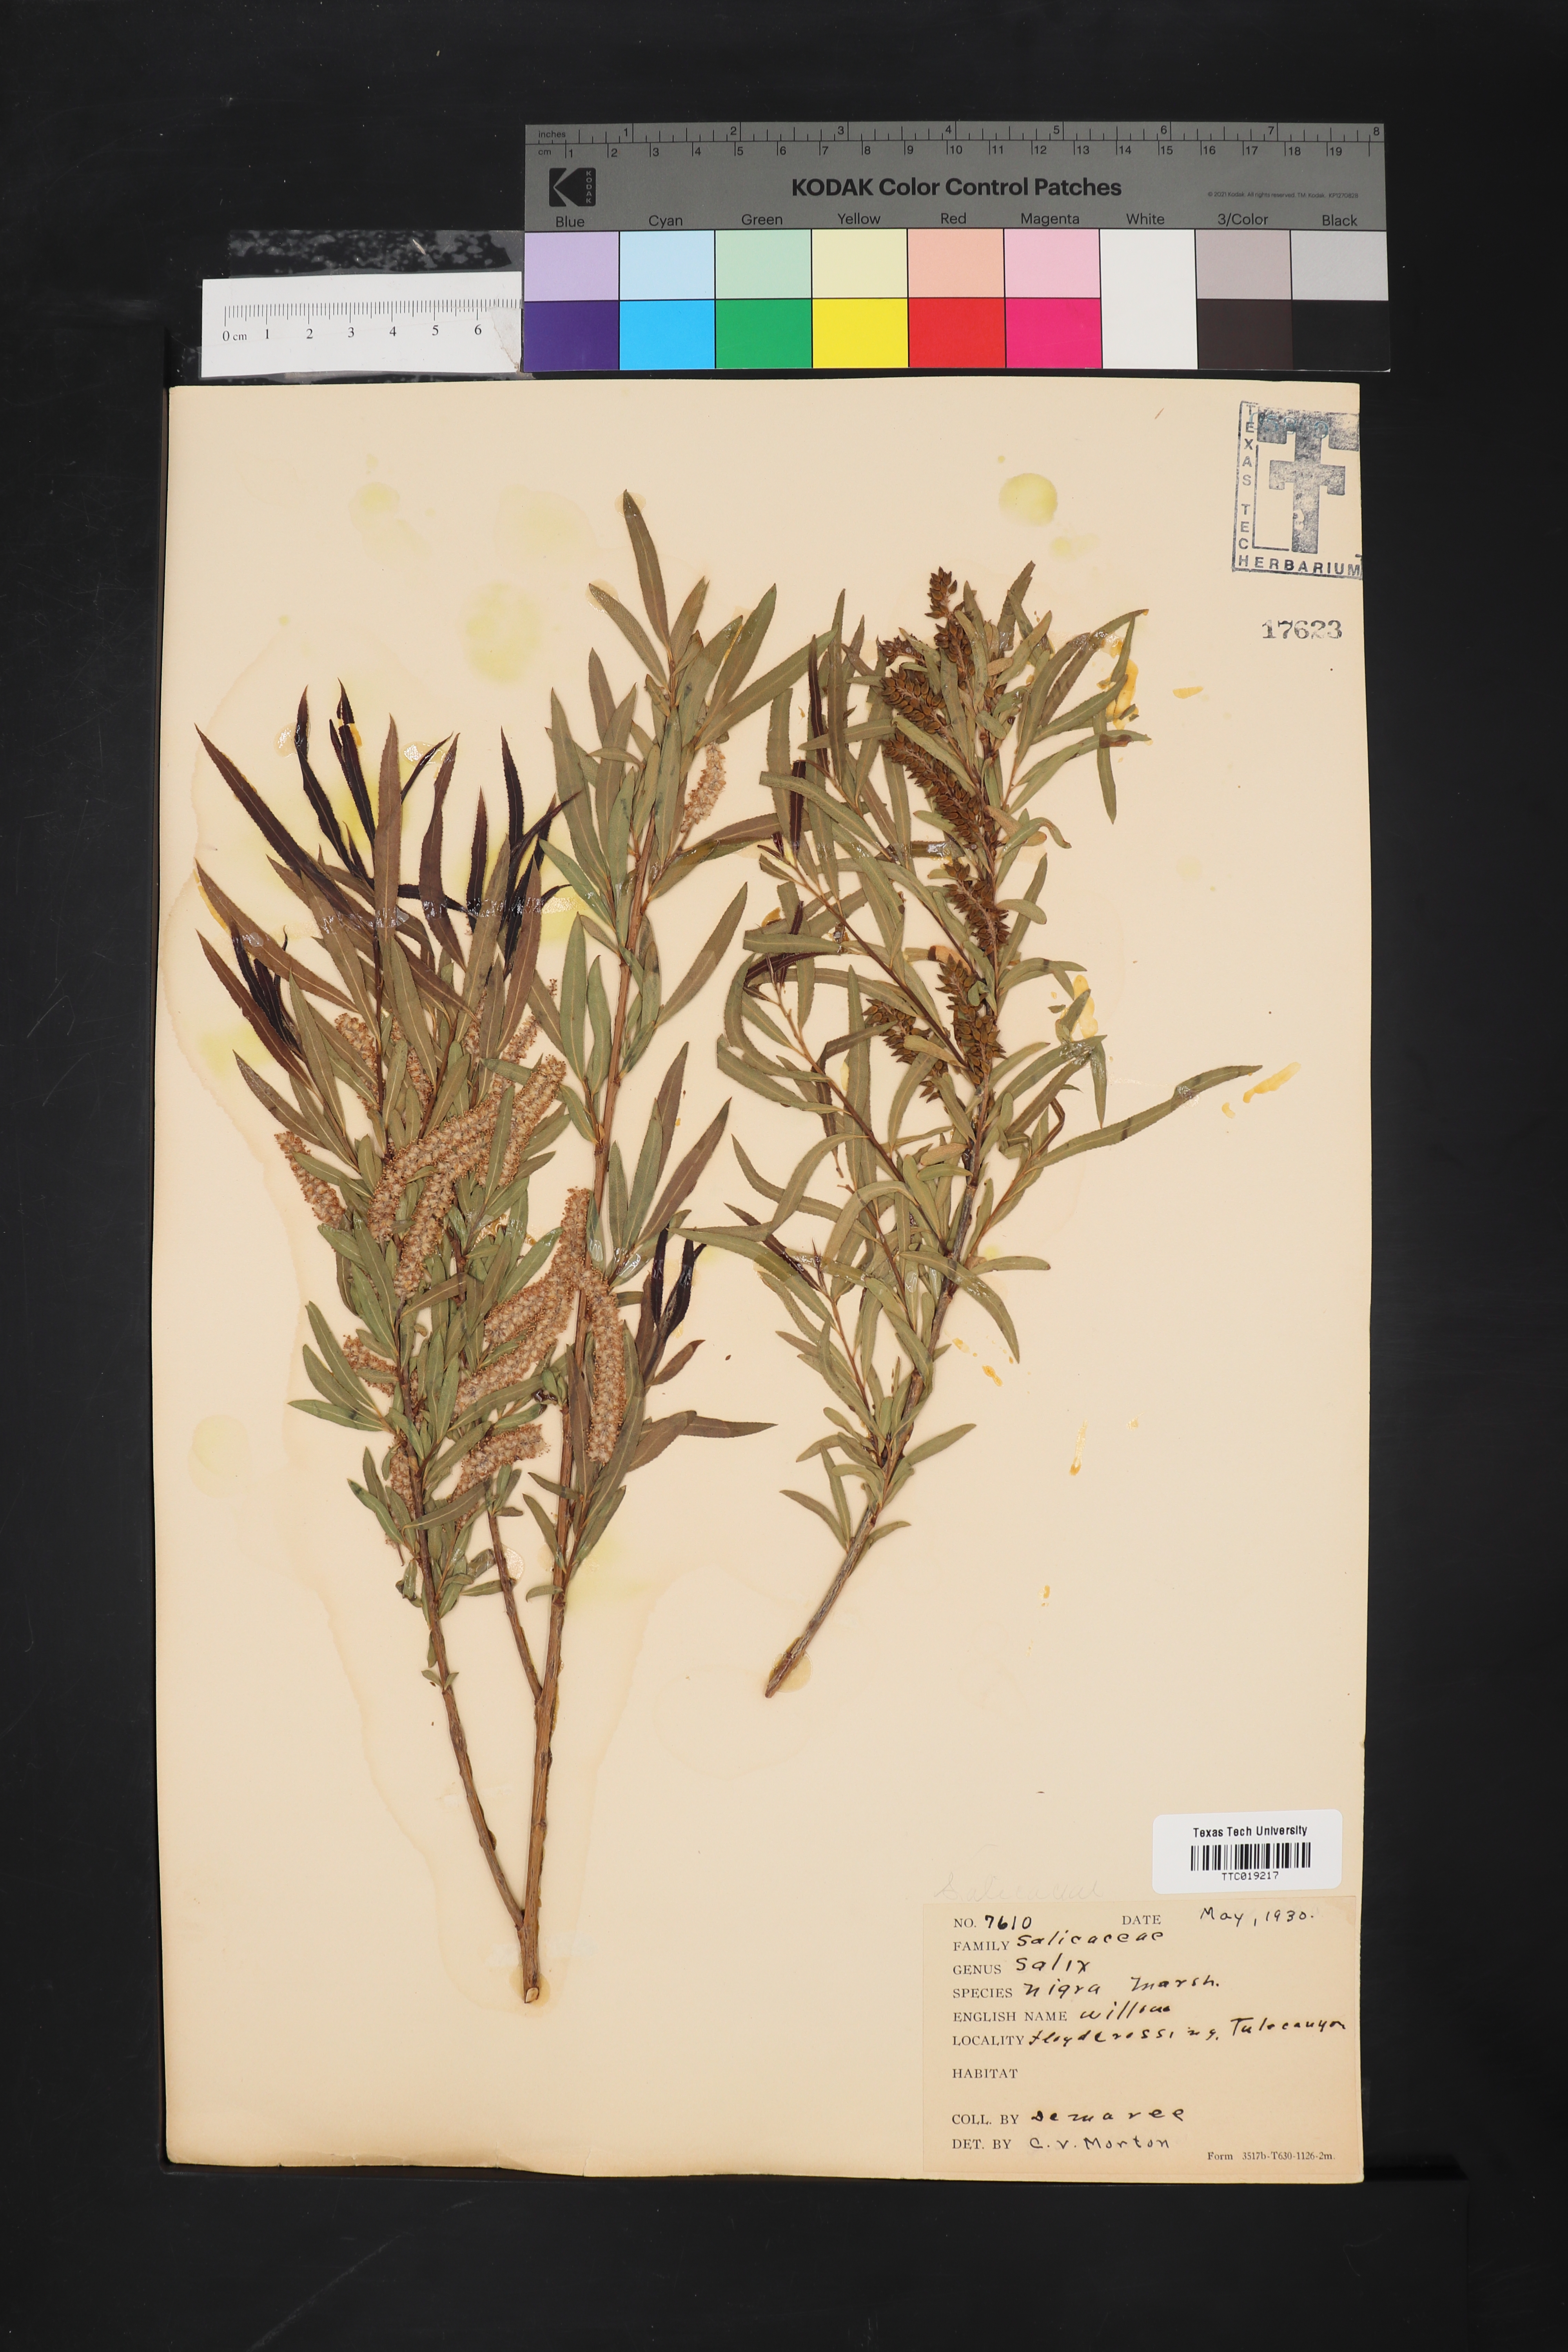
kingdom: Plantae
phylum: Tracheophyta
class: Magnoliopsida
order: Malpighiales
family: Salicaceae
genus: Salix
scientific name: Salix nigra
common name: Black willow
